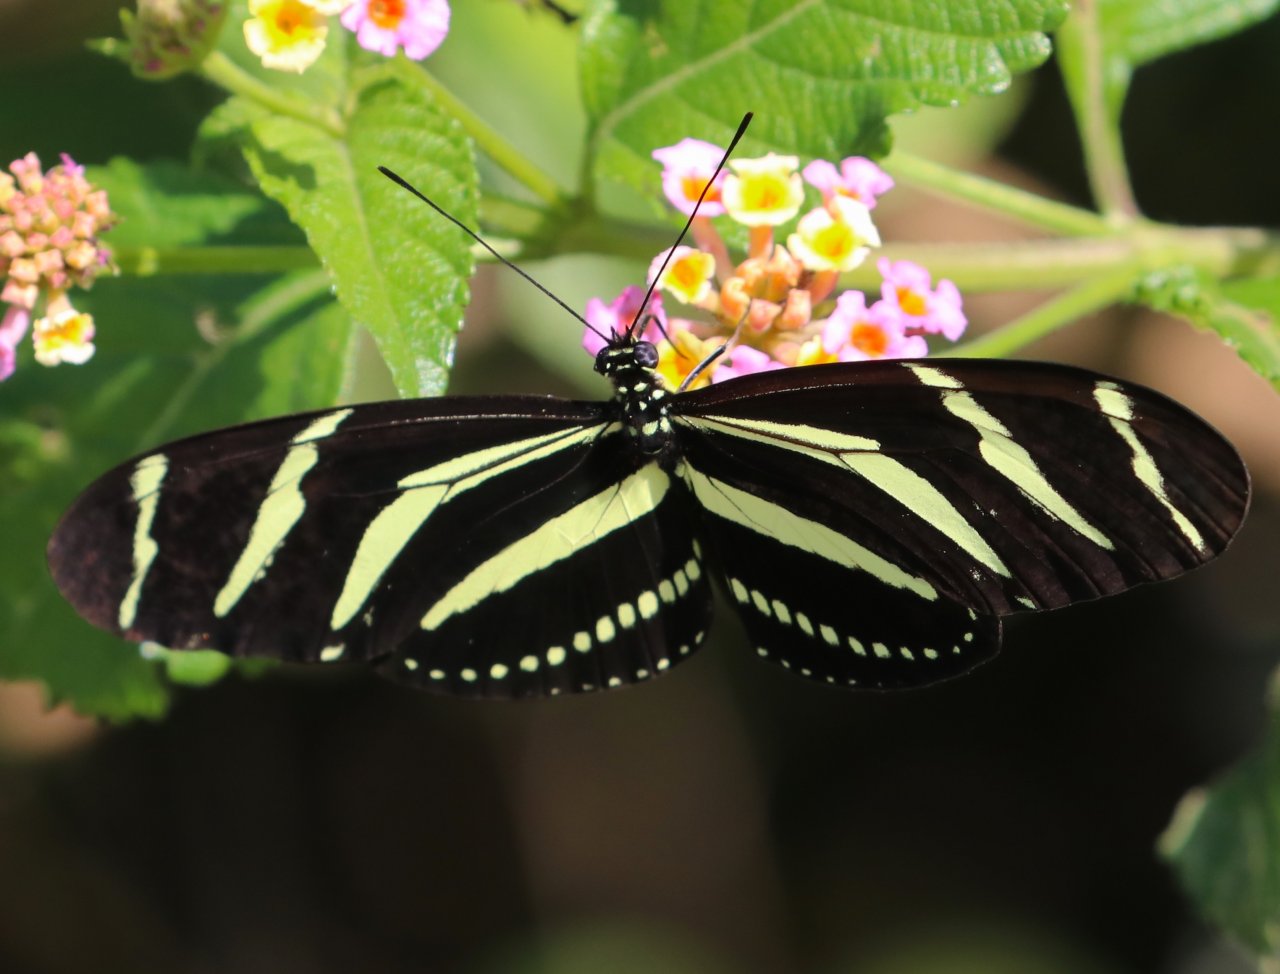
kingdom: Animalia
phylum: Arthropoda
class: Insecta
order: Lepidoptera
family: Nymphalidae
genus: Heliconius
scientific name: Heliconius charithonia
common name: Zebra Longwing
